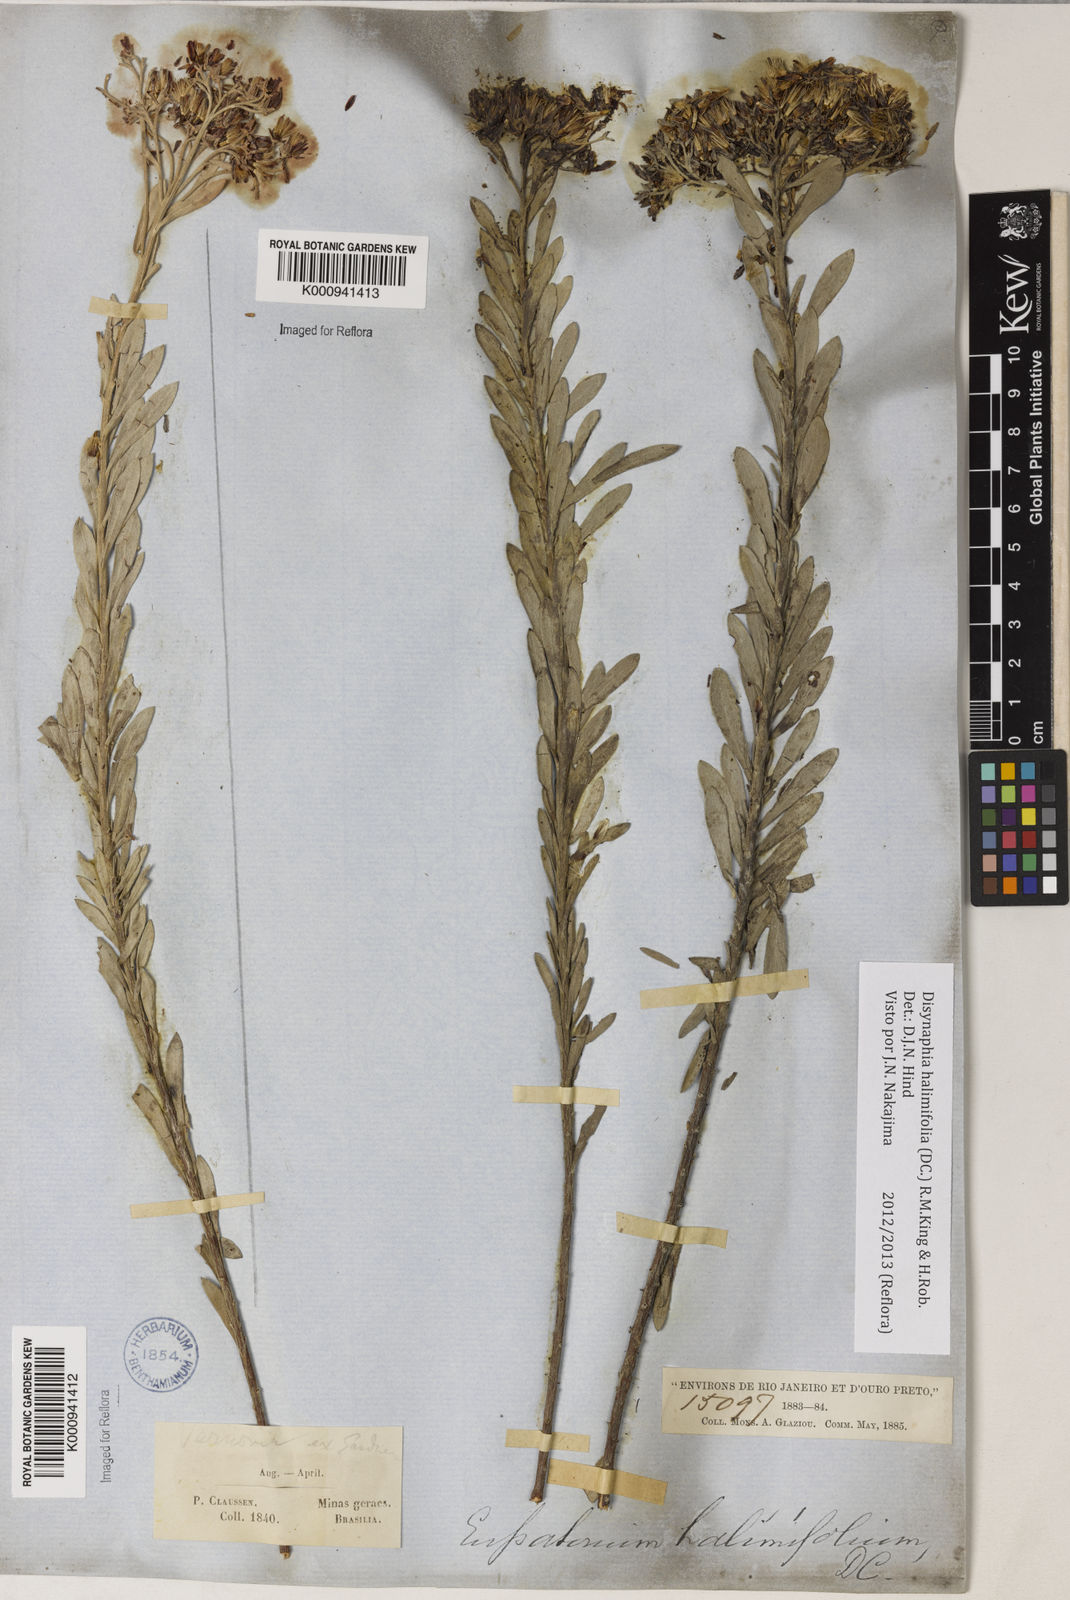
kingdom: Plantae
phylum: Tracheophyta
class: Magnoliopsida
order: Asterales
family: Asteraceae
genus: Disynaphia
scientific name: Disynaphia halimifolia
